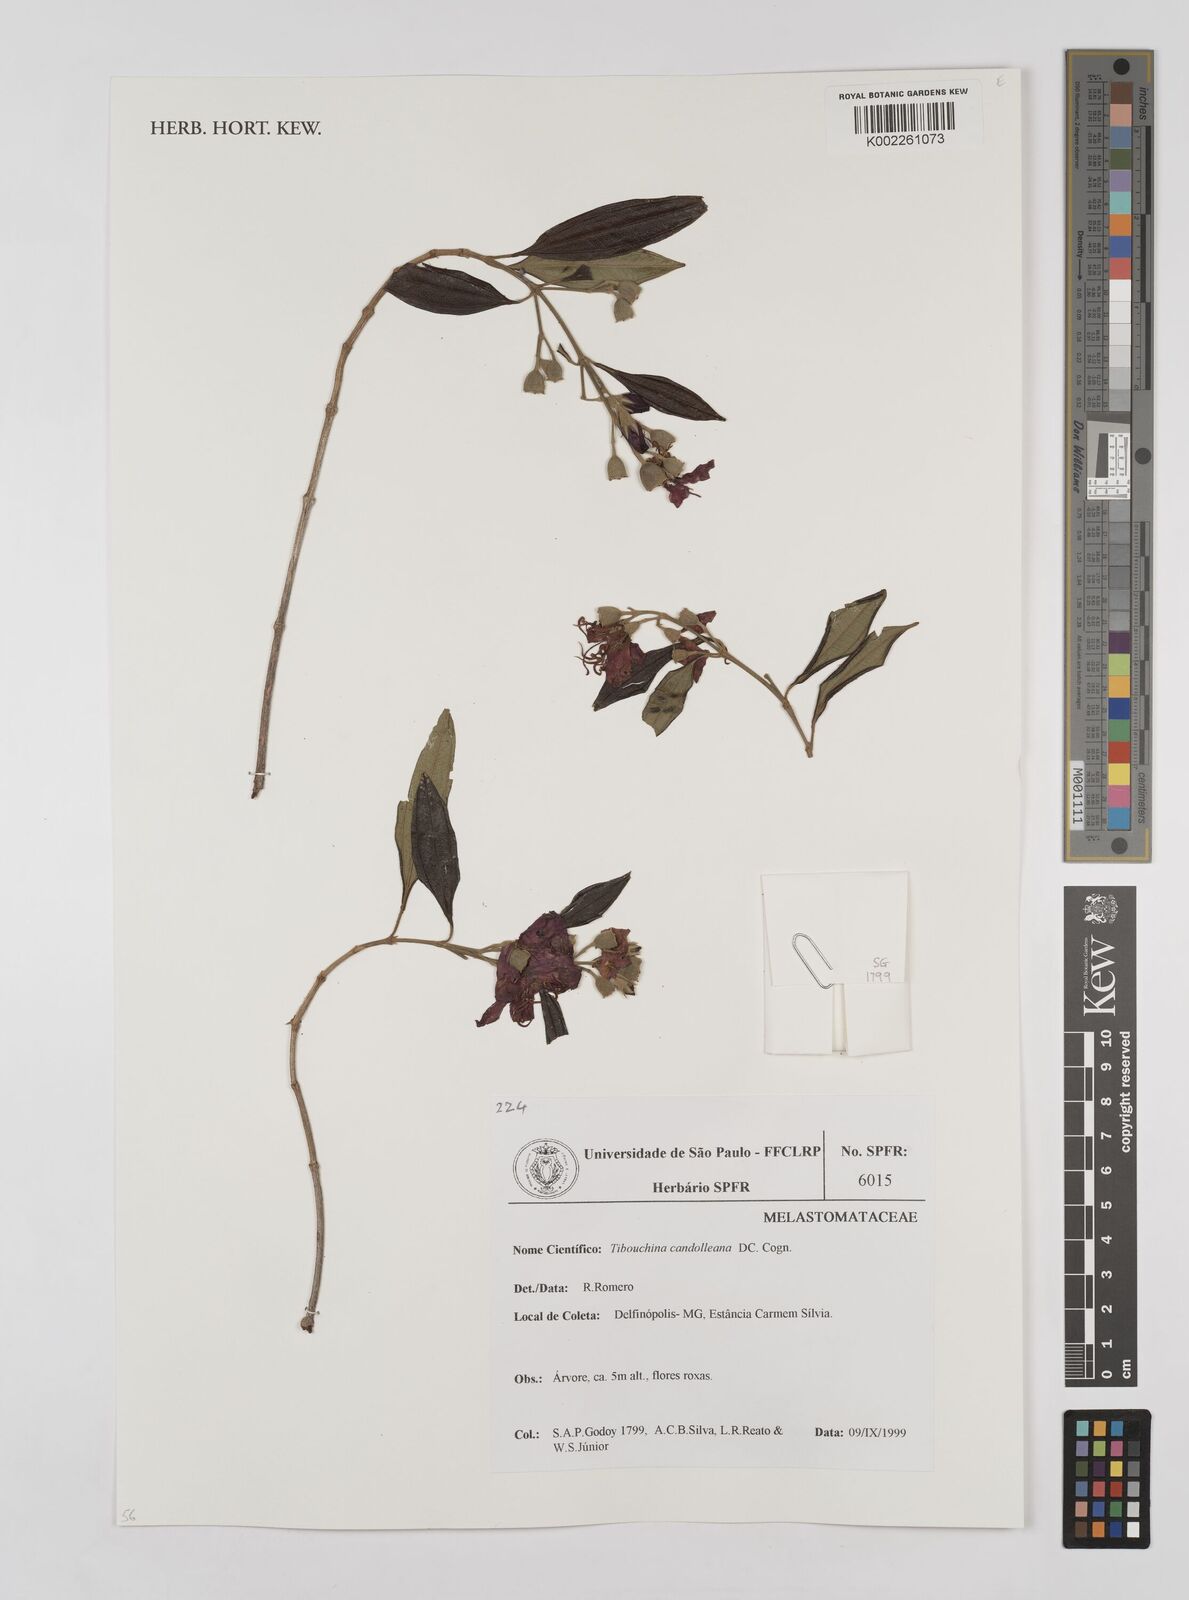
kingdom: Plantae
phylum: Tracheophyta
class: Magnoliopsida
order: Myrtales
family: Melastomataceae
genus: Pleroma
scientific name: Pleroma candolleanum
